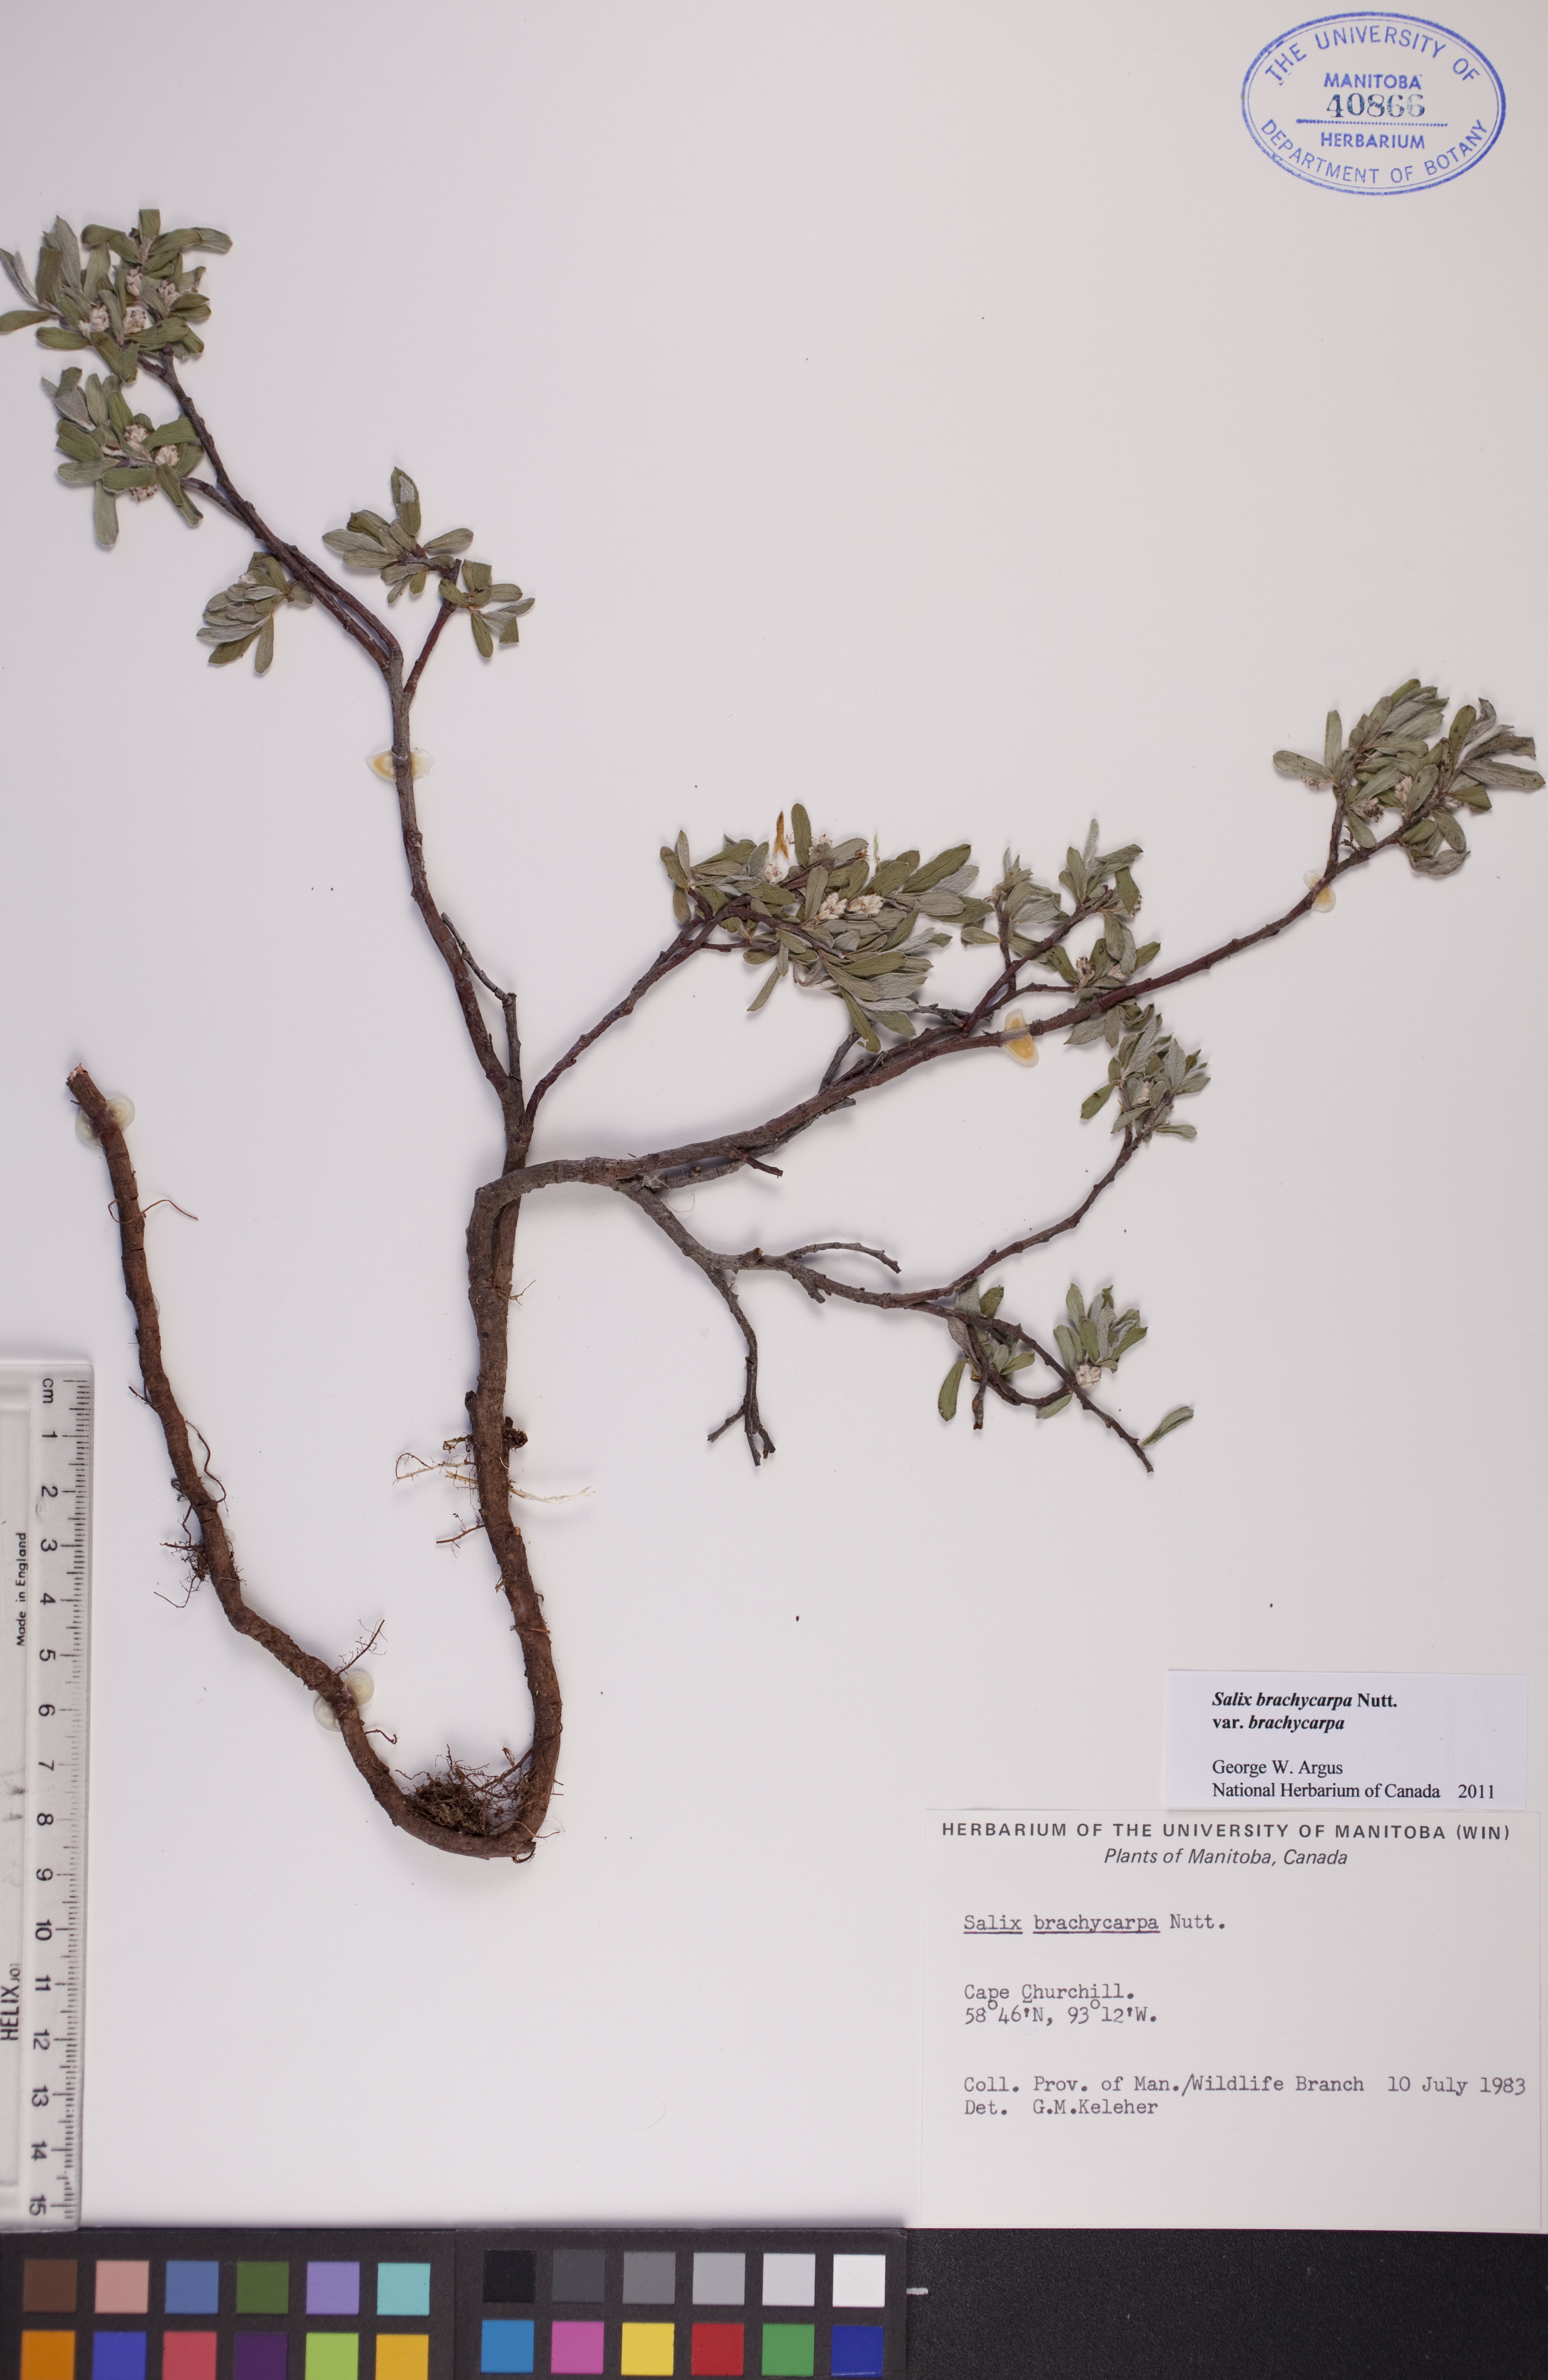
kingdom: Plantae
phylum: Tracheophyta
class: Magnoliopsida
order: Malpighiales
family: Salicaceae
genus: Salix
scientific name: Salix brachycarpa
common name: Barren-ground willow
